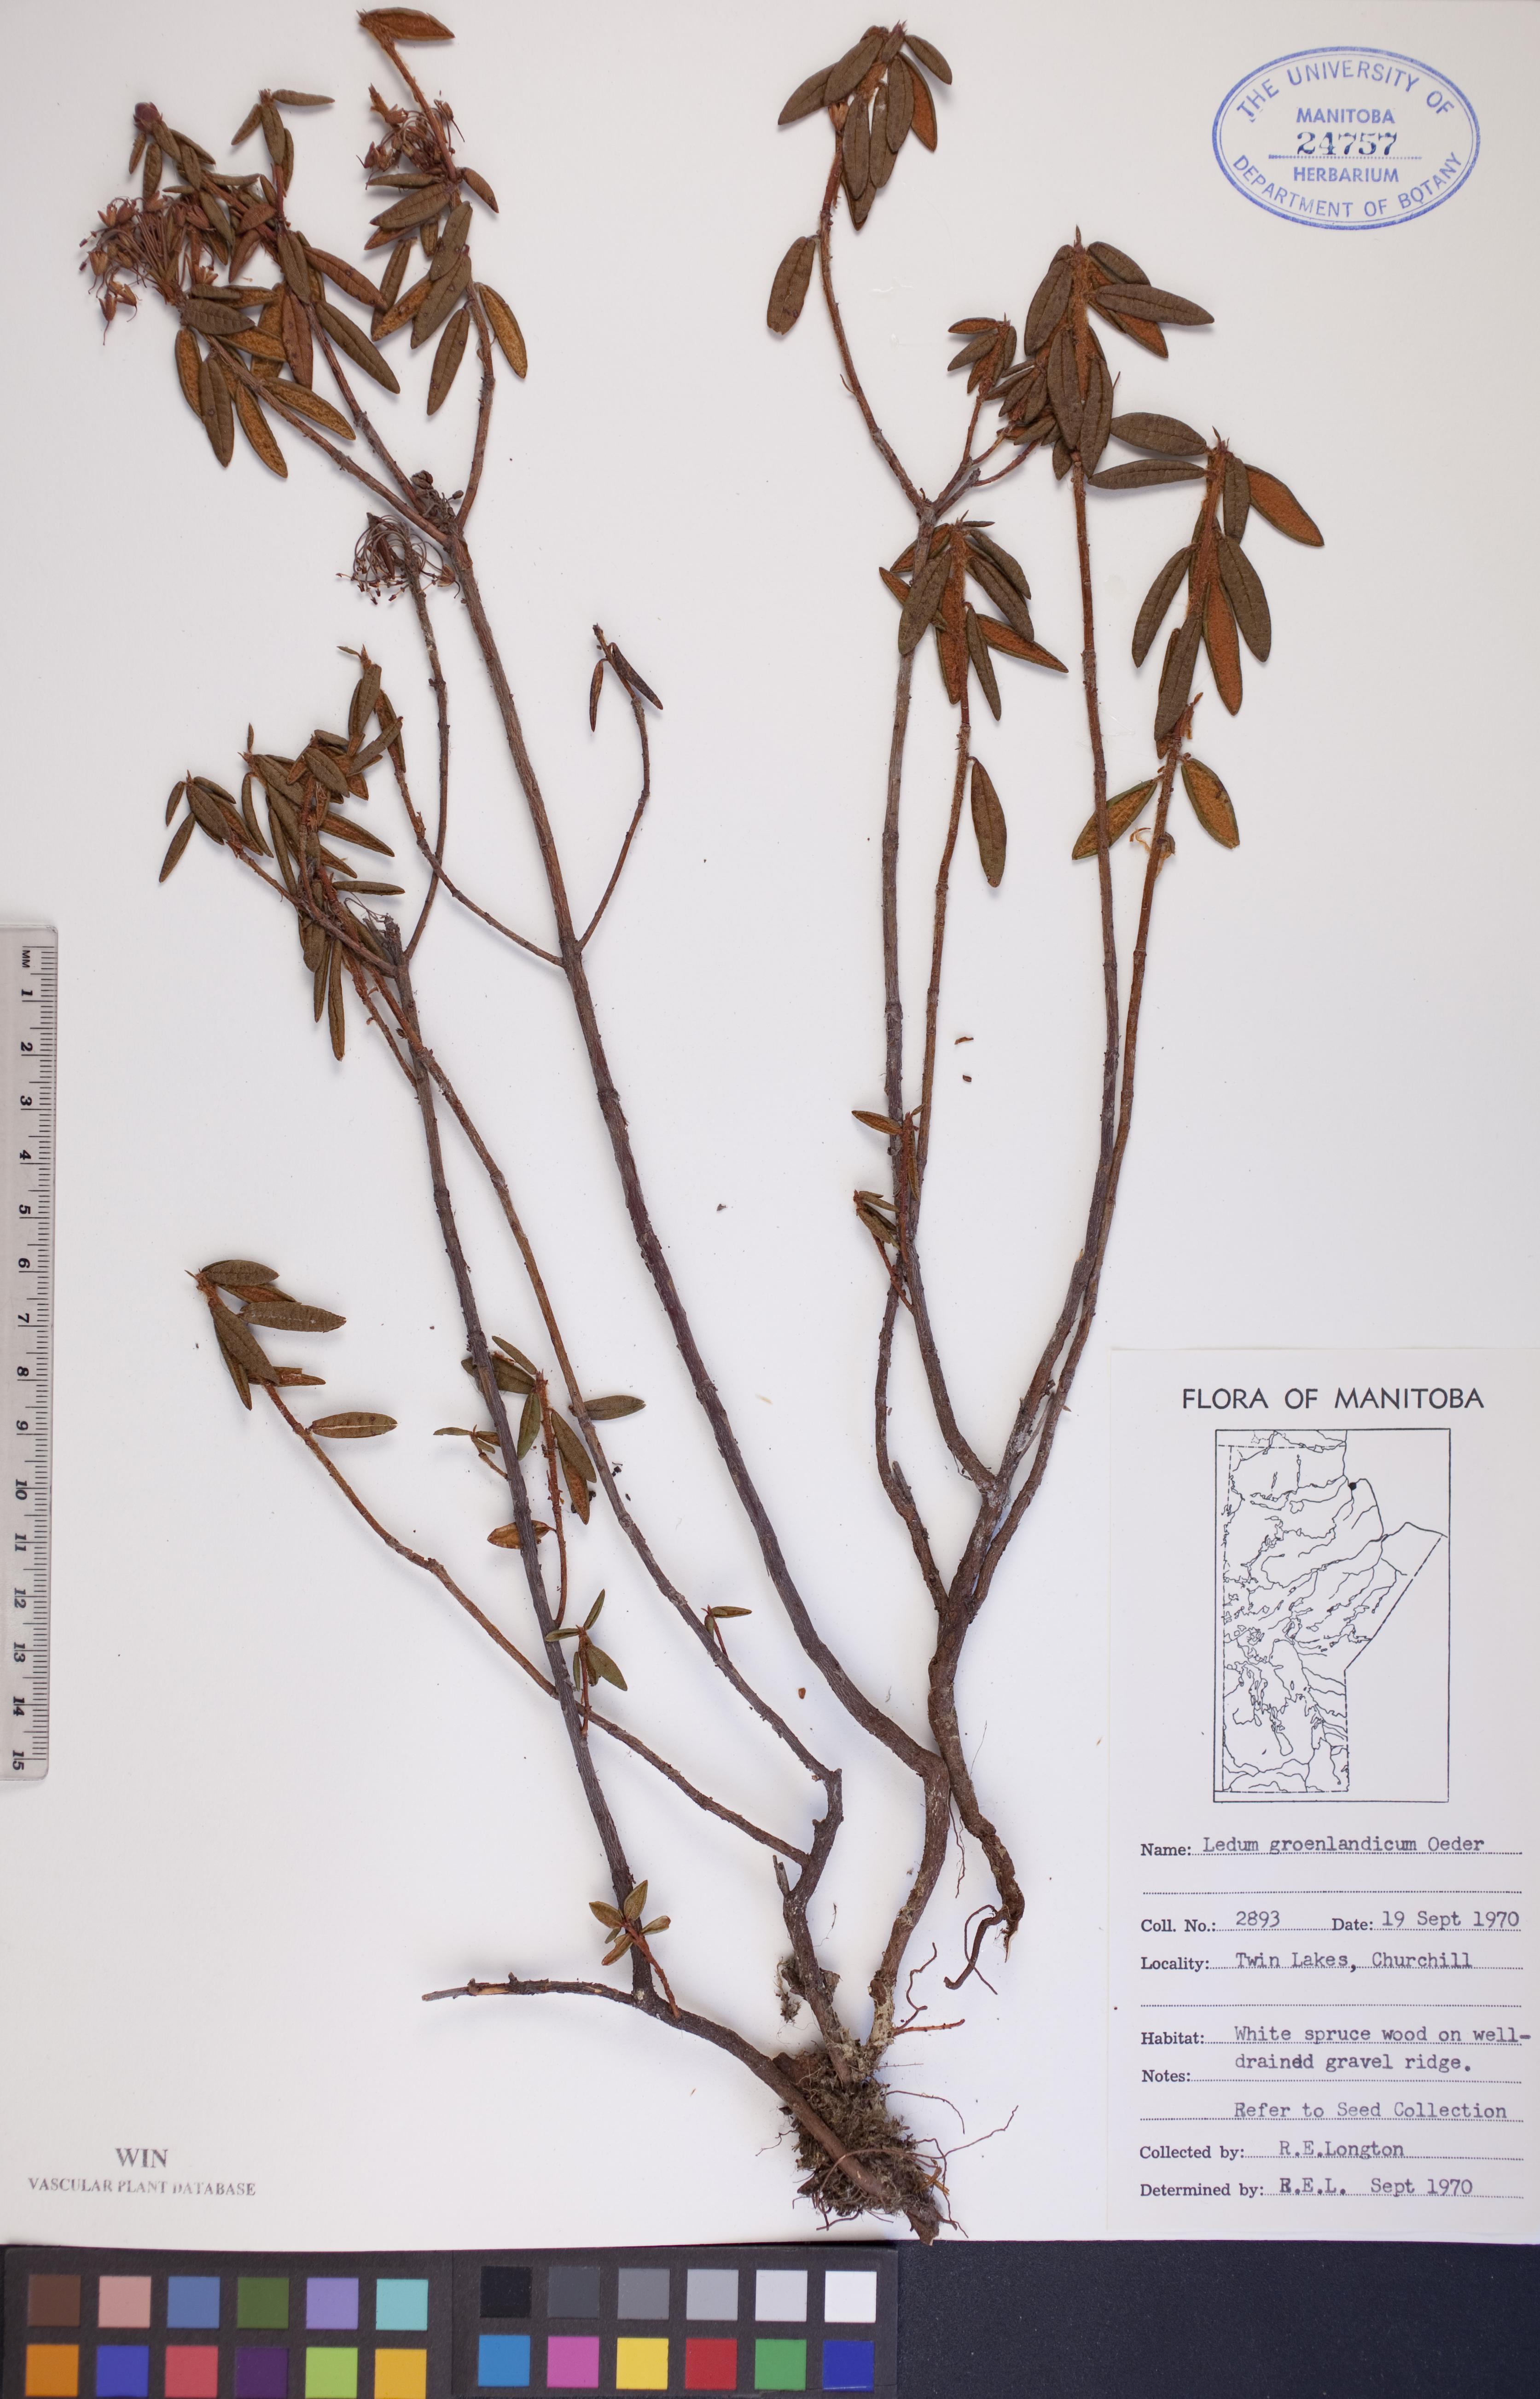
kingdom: Plantae
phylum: Tracheophyta
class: Magnoliopsida
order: Ericales
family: Ericaceae
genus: Rhododendron
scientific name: Rhododendron groenlandicum
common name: Bog labrador tea
